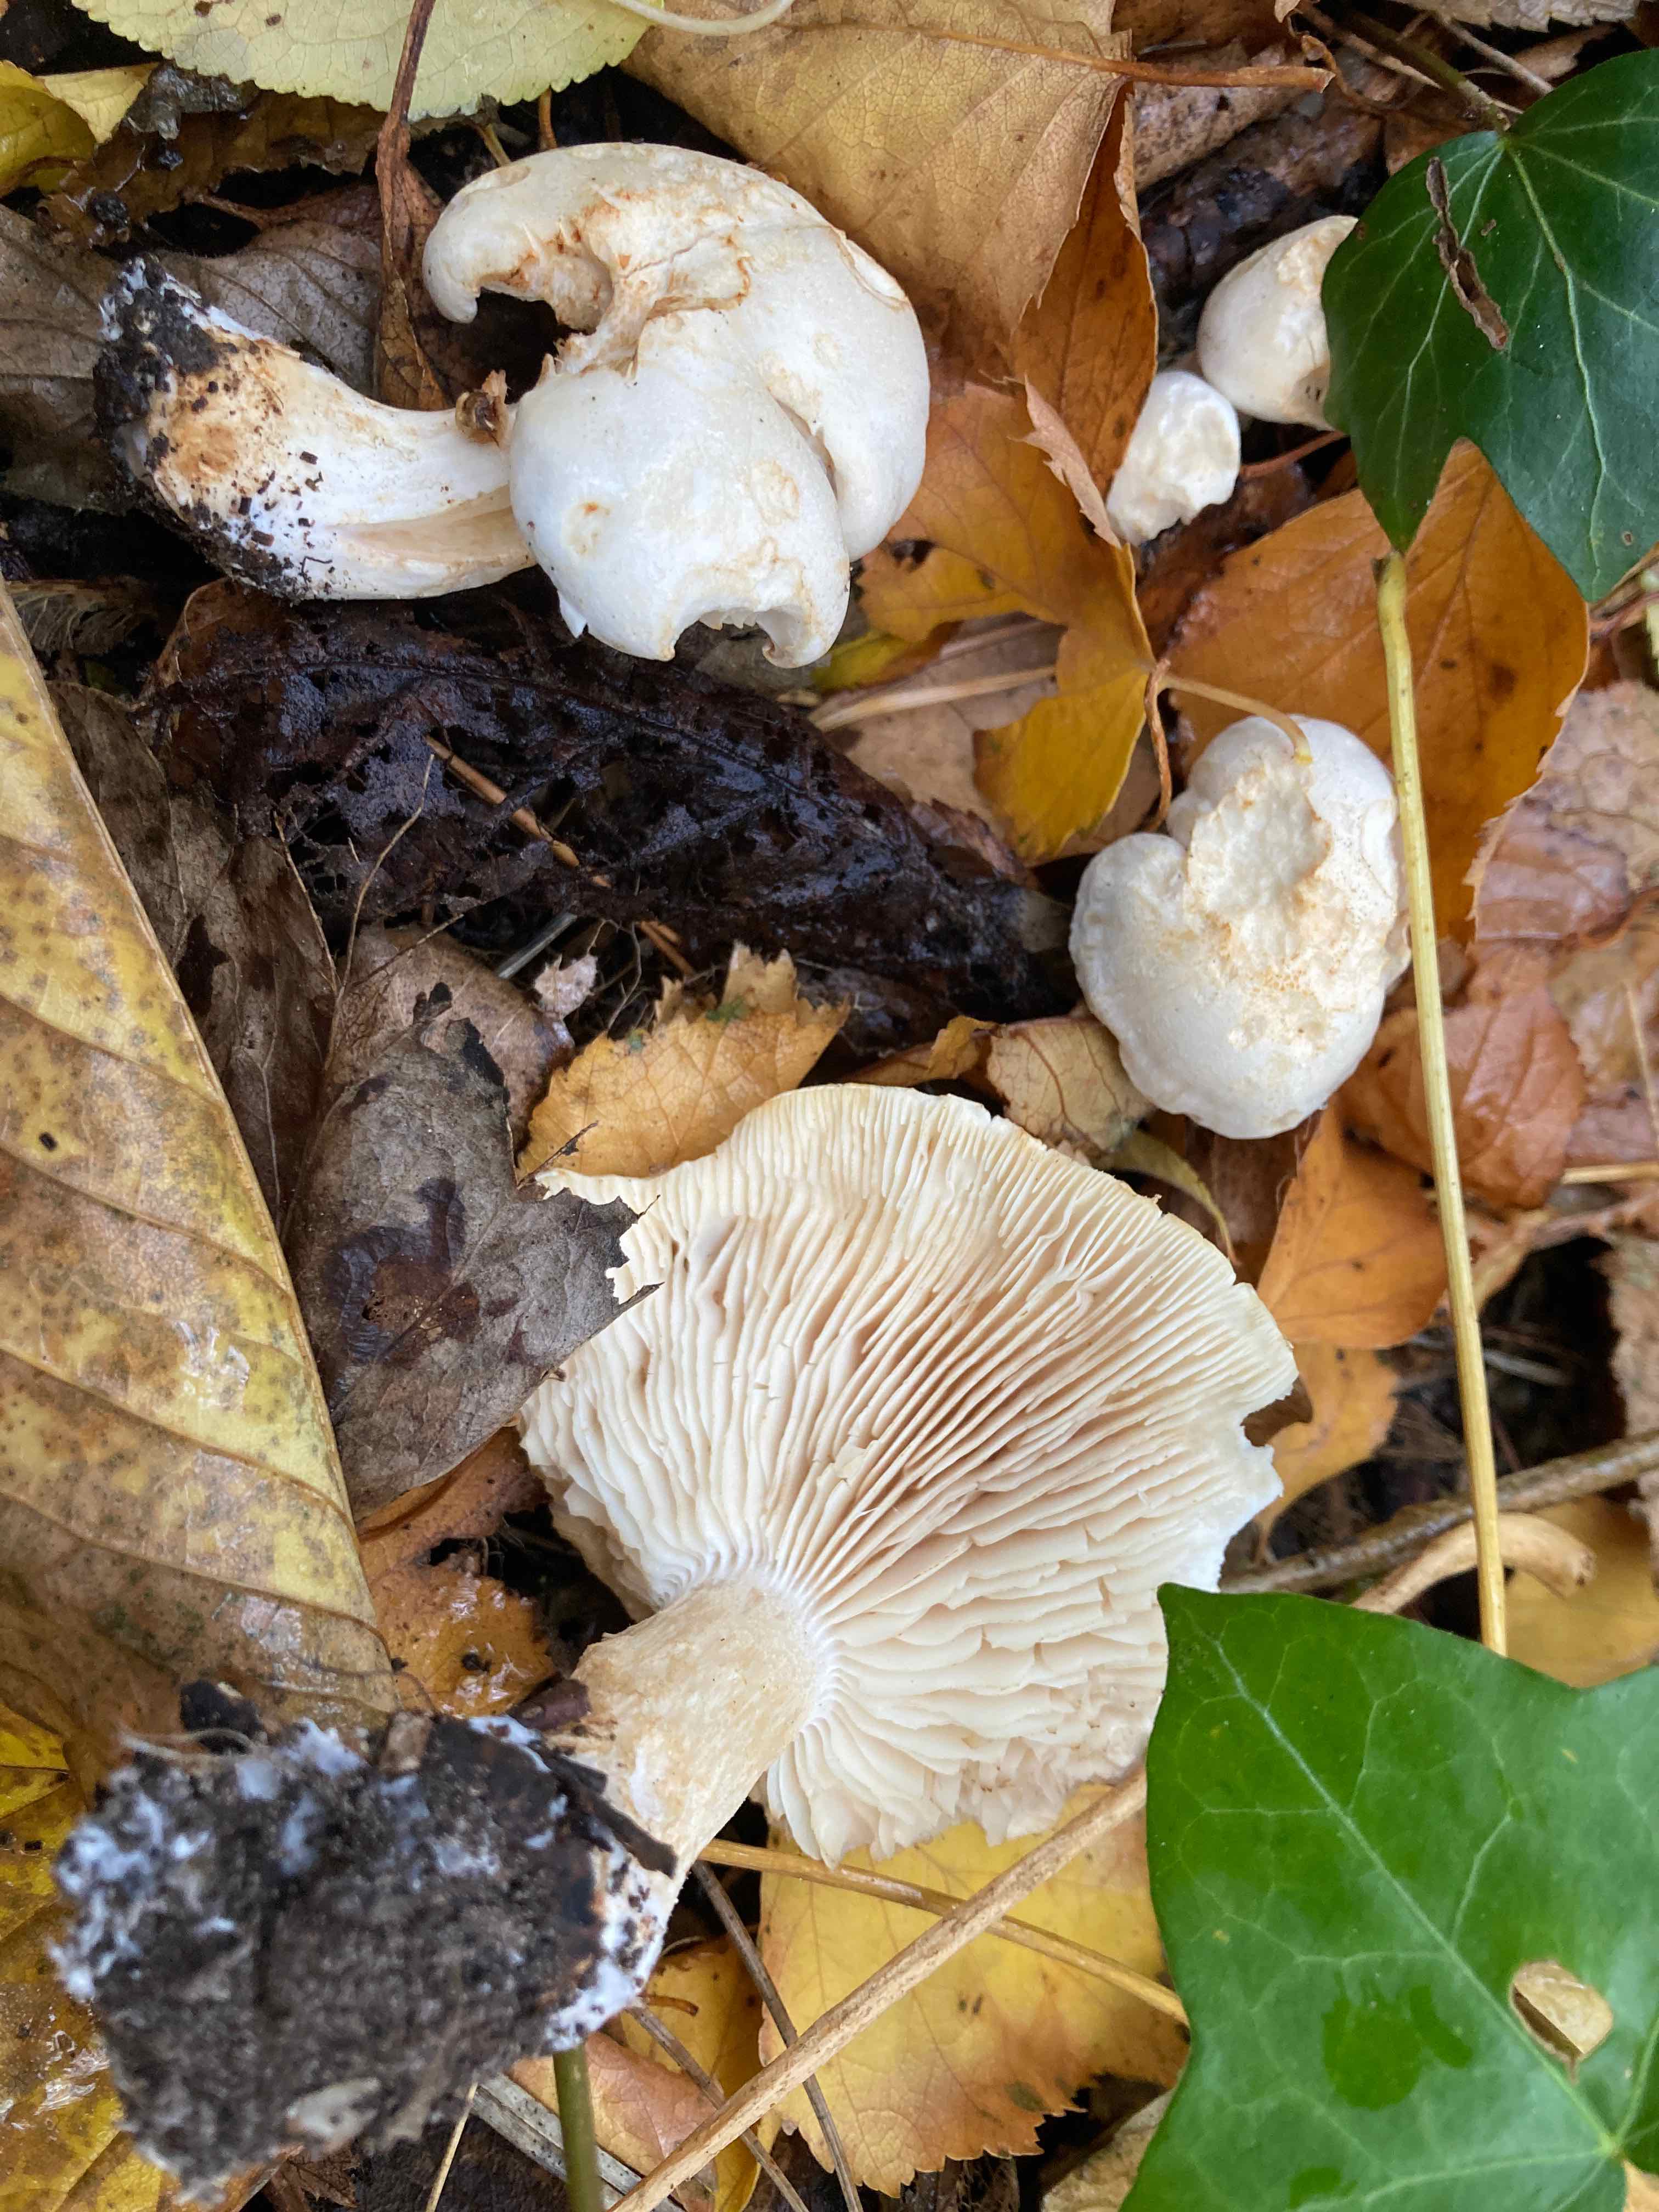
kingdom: Fungi
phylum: Basidiomycota
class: Agaricomycetes
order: Agaricales
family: Tricholomataceae
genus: Tricholoma
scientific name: Tricholoma stiparophyllum
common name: hvid ridderhat
